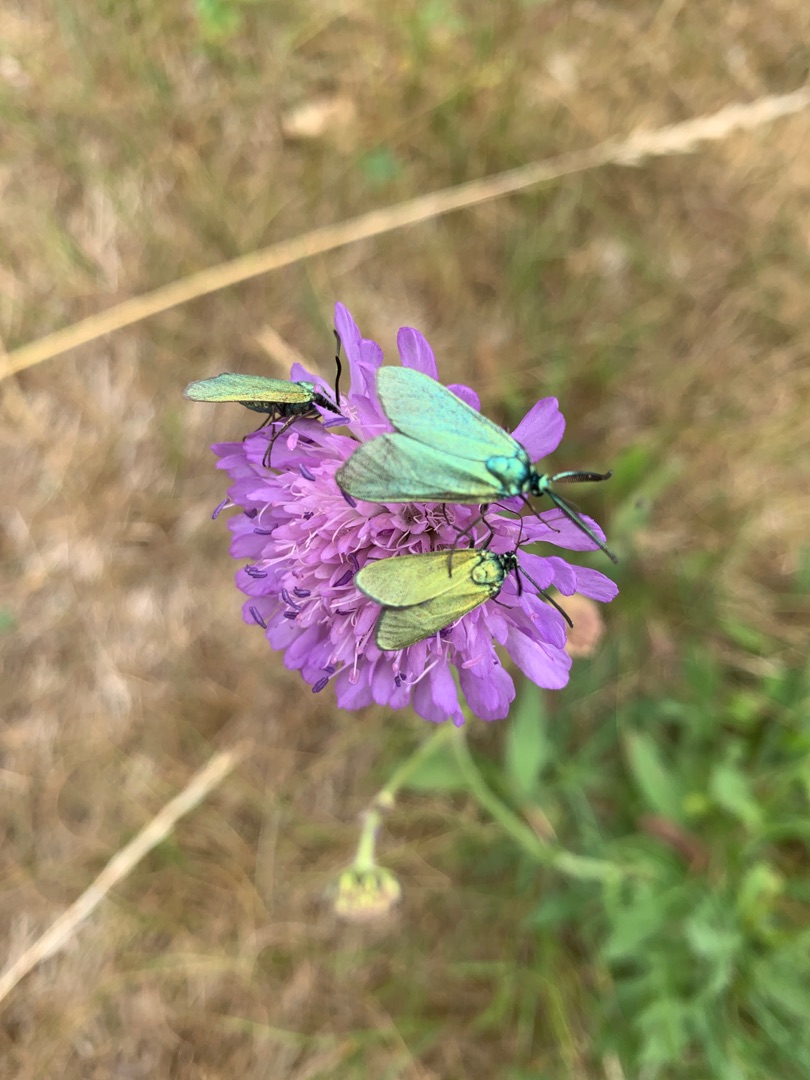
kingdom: Animalia
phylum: Arthropoda
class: Insecta
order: Lepidoptera
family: Zygaenidae
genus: Adscita
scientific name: Adscita statices
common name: Metalvinge
